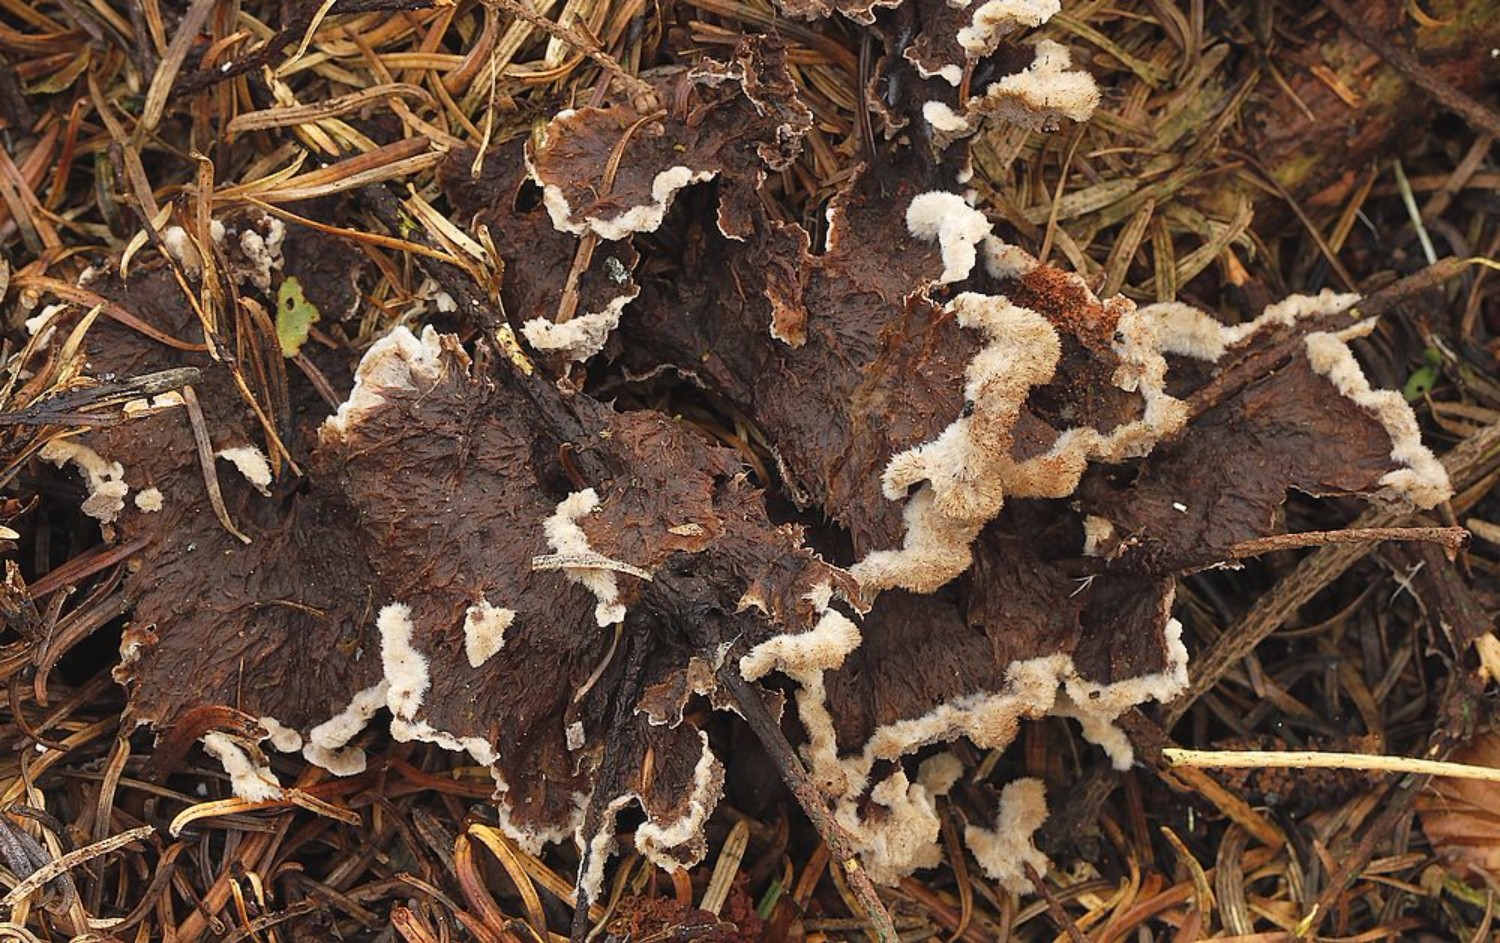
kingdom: Fungi
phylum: Basidiomycota
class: Agaricomycetes
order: Thelephorales
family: Thelephoraceae
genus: Thelephora
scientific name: Thelephora terrestris
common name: fliget frynsesvamp
